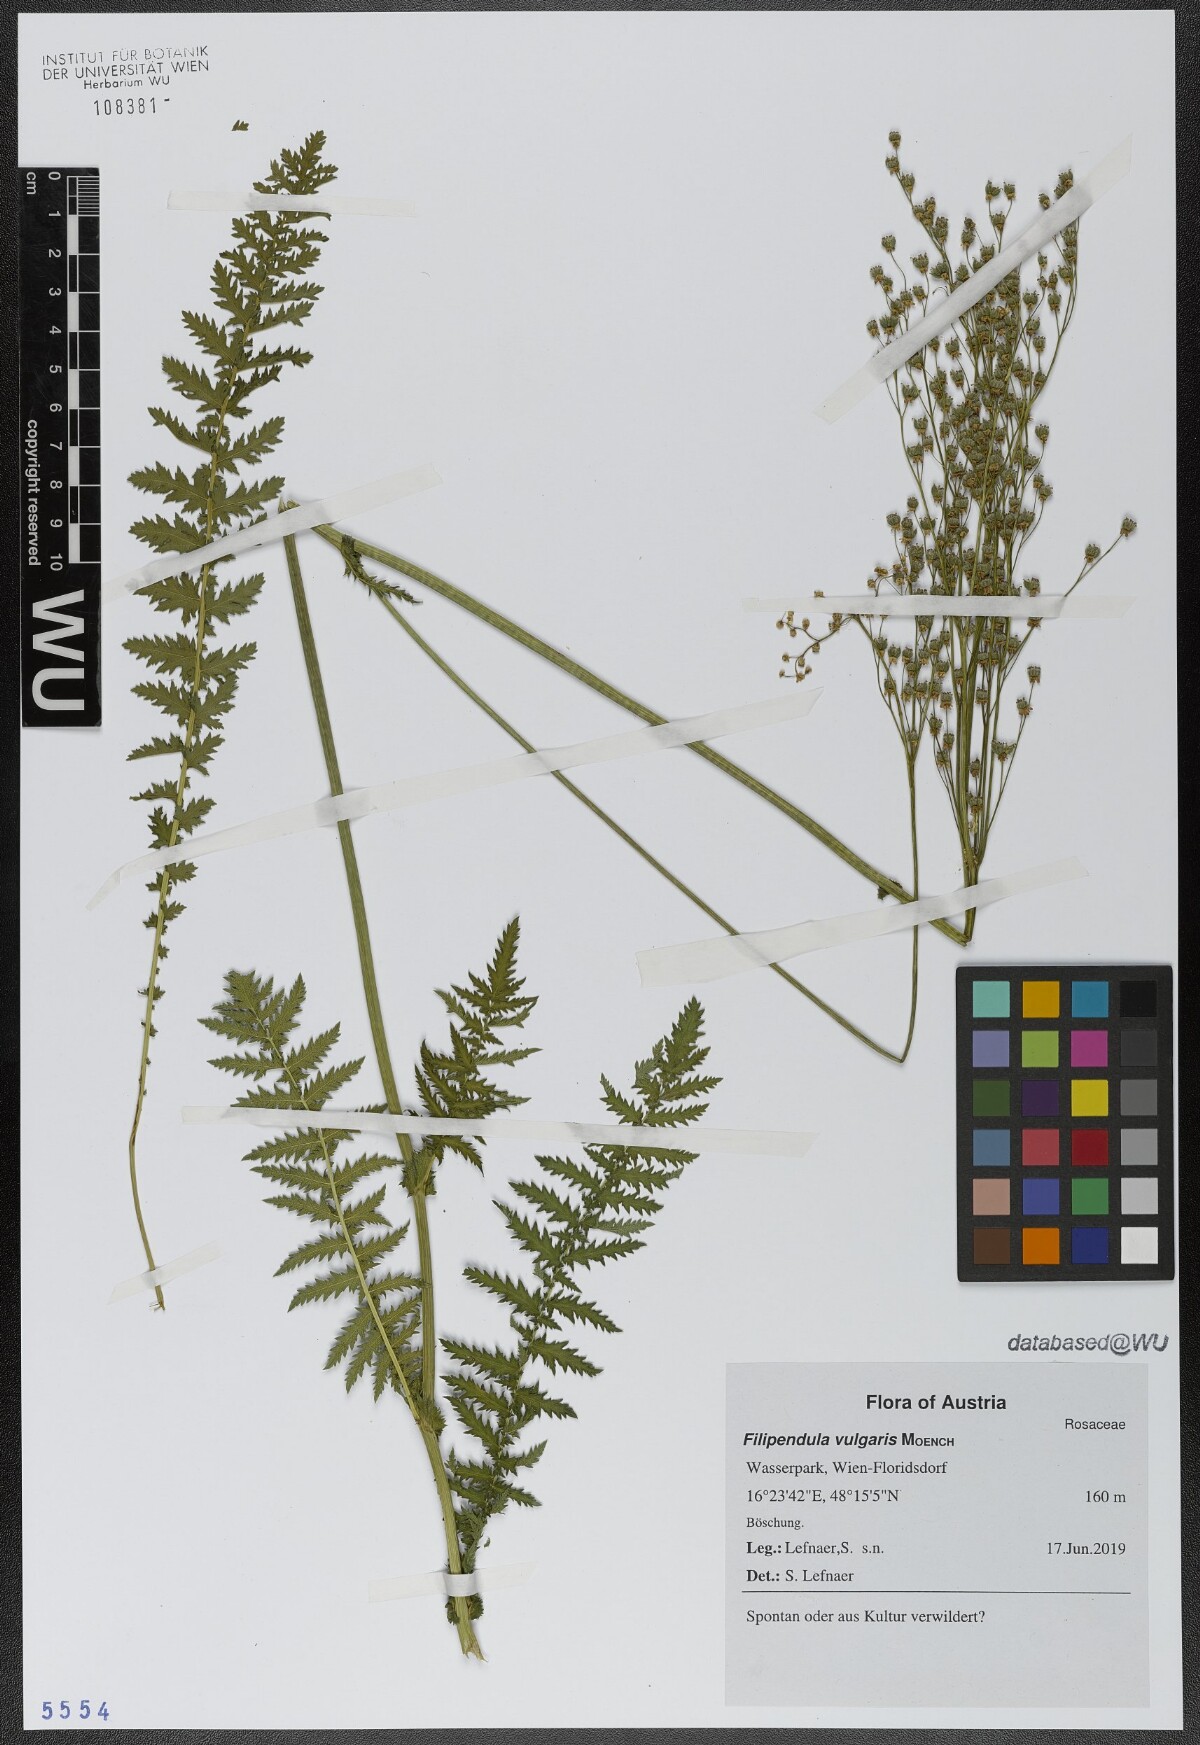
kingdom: Plantae
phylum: Tracheophyta
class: Magnoliopsida
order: Rosales
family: Rosaceae
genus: Filipendula
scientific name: Filipendula vulgaris
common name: Dropwort
